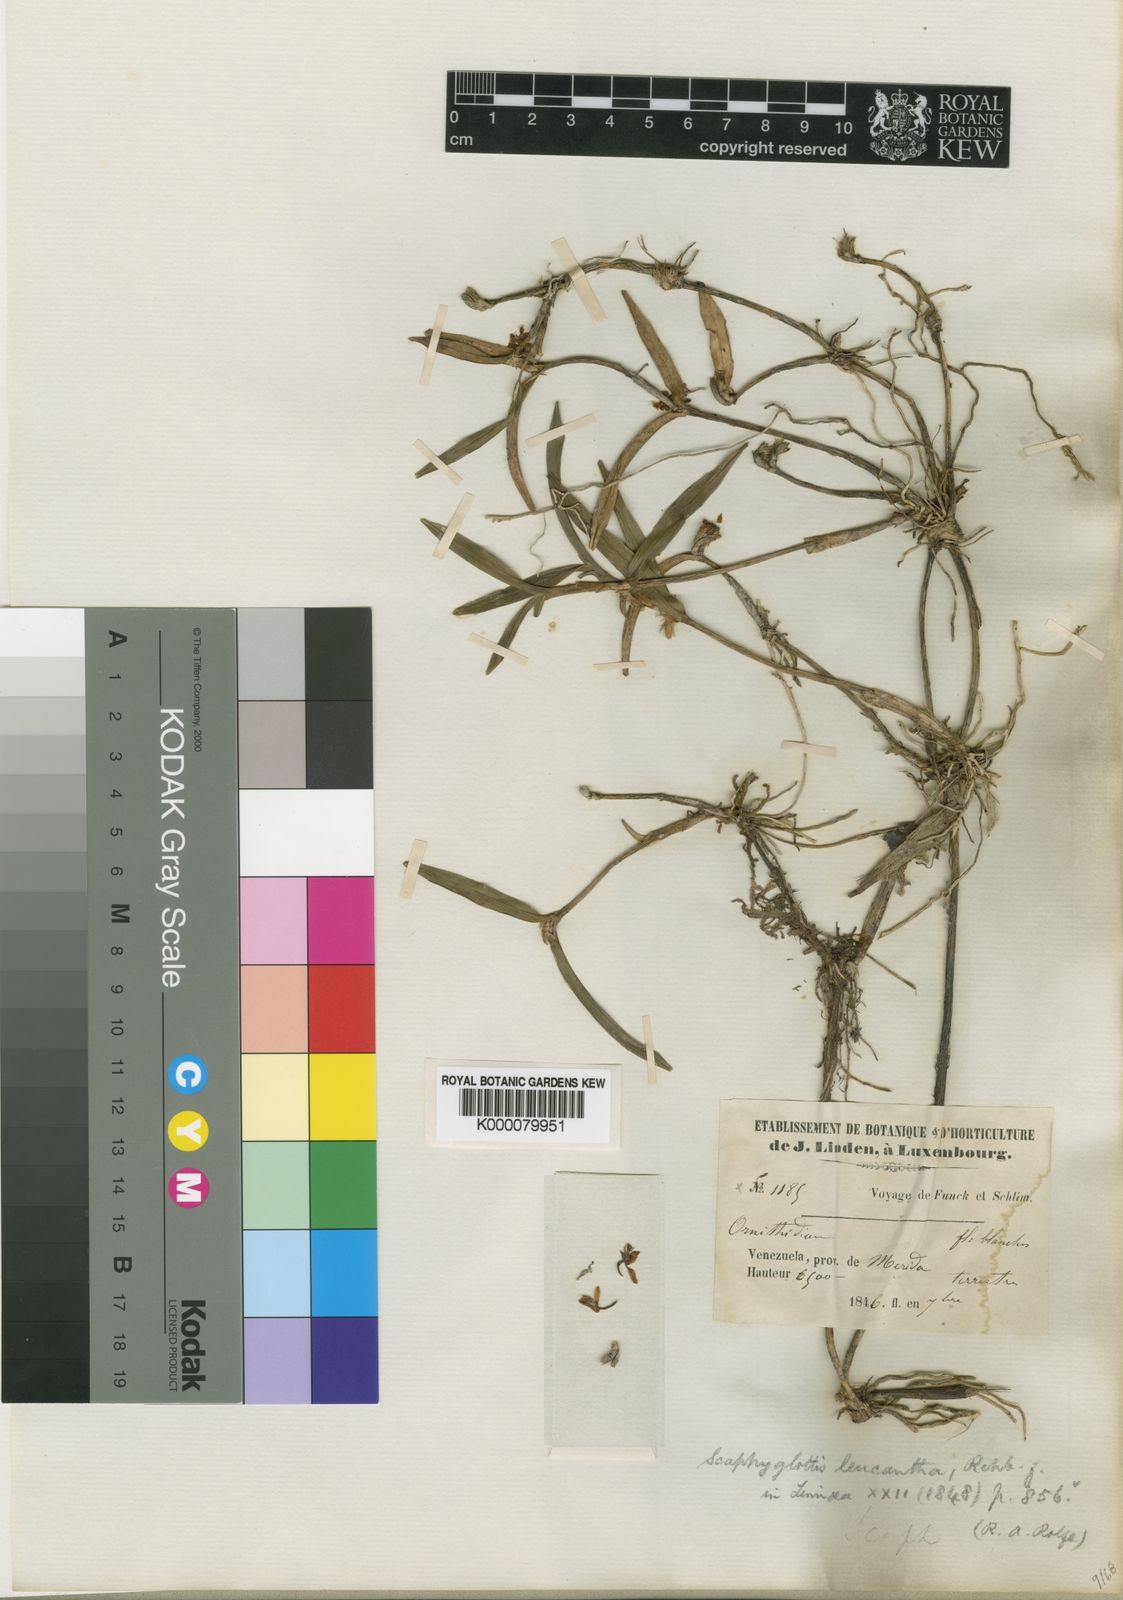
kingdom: Plantae
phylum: Tracheophyta
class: Liliopsida
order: Asparagales
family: Orchidaceae
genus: Scaphyglottis
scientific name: Scaphyglottis leucantha
